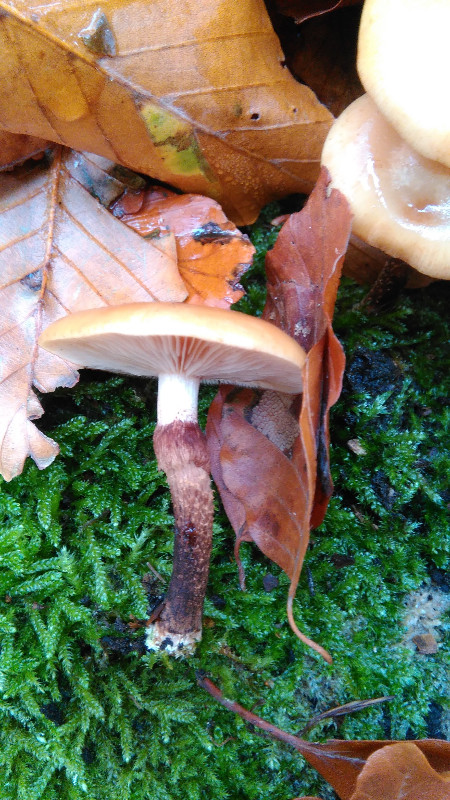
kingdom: Fungi
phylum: Basidiomycota
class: Agaricomycetes
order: Agaricales
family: Strophariaceae
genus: Kuehneromyces
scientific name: Kuehneromyces mutabilis
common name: foranderlig skælhat
